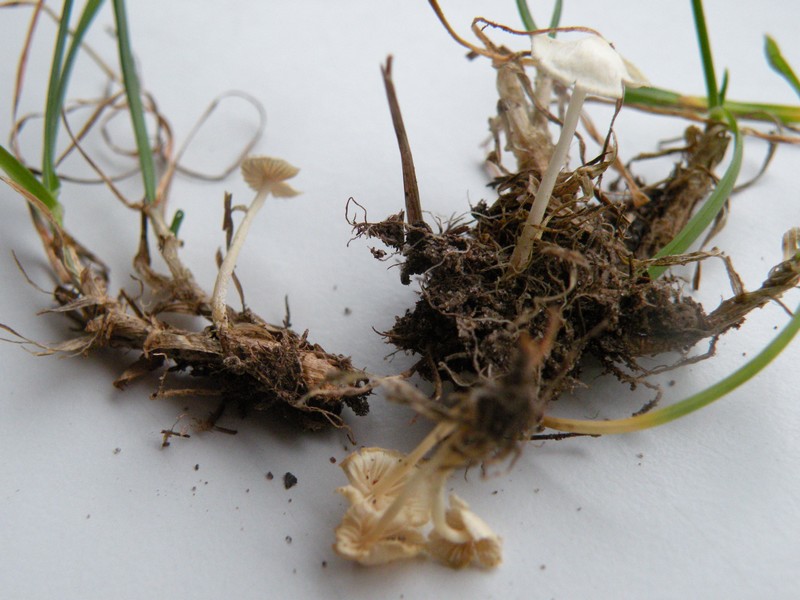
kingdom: Fungi
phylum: Basidiomycota
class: Agaricomycetes
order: Agaricales
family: Mycenaceae
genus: Atheniella
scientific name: Atheniella flavoalba
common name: gulhvid huesvamp
